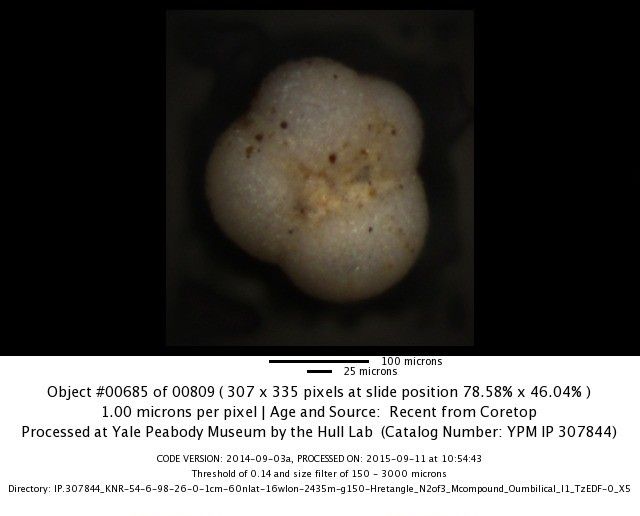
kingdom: Chromista
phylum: Foraminifera
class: Globothalamea
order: Rotaliida
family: Globigerinidae
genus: Globigerina
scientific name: Globigerina bulloides
